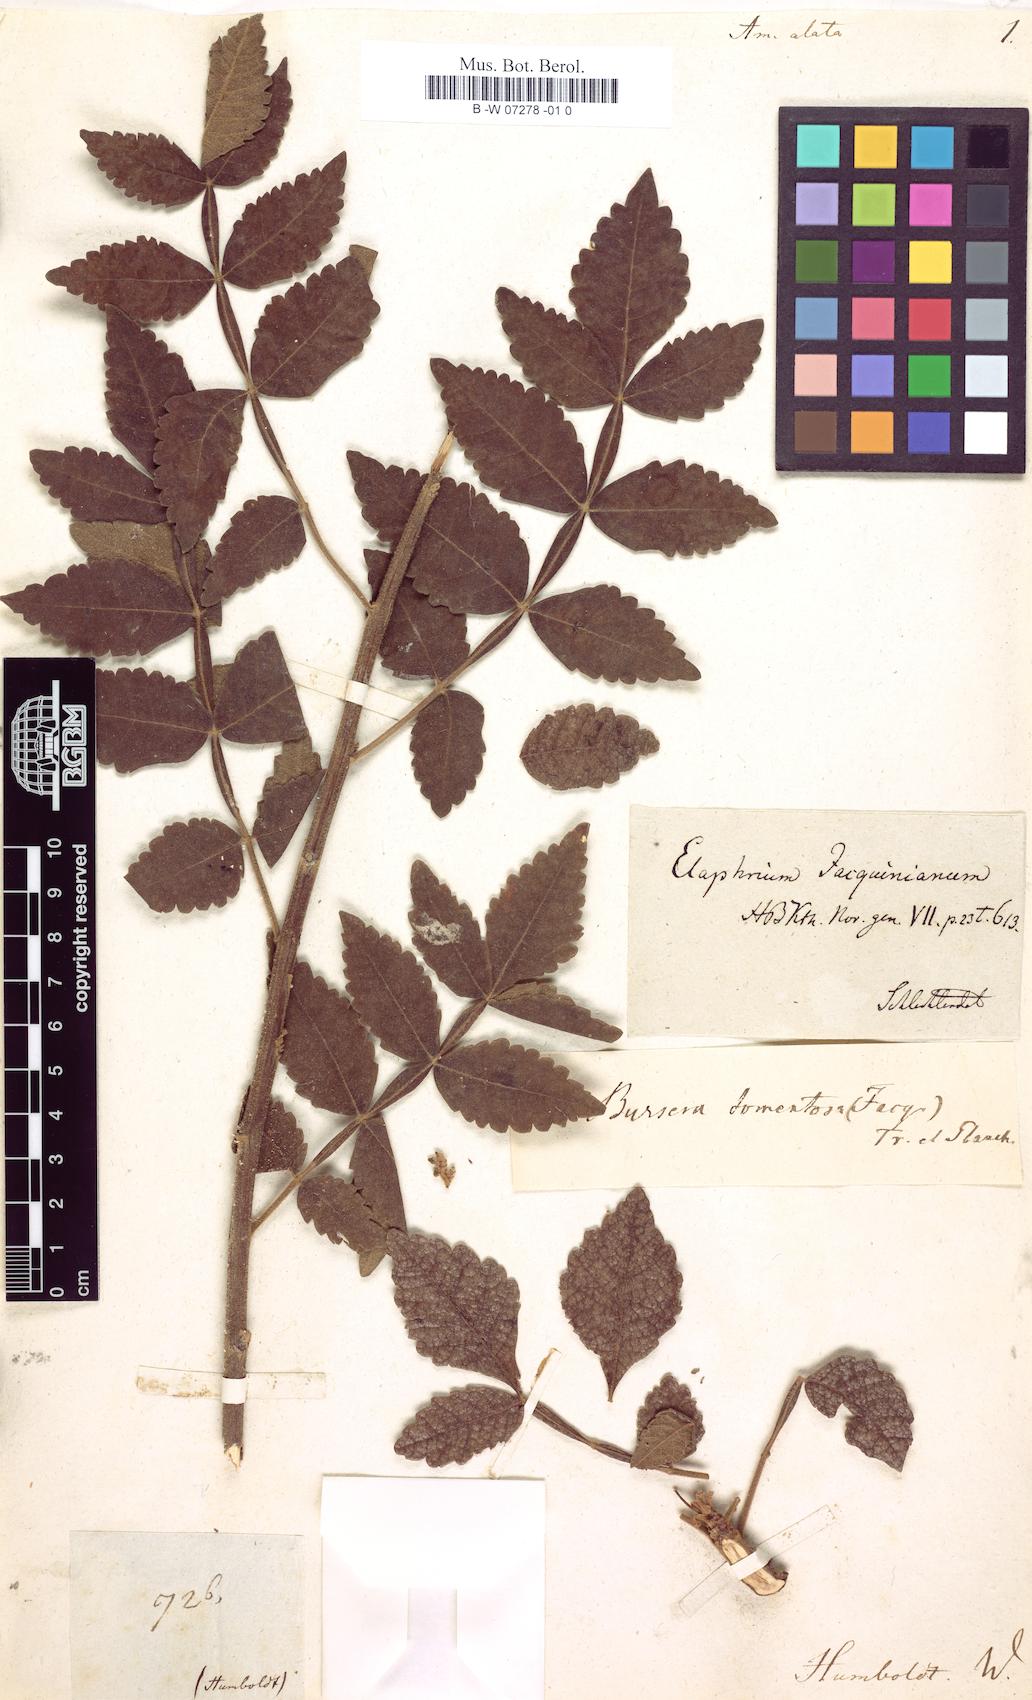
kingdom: Plantae
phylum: Tracheophyta
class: Magnoliopsida
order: Sapindales
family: Rutaceae
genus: Amyris
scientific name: Amyris
